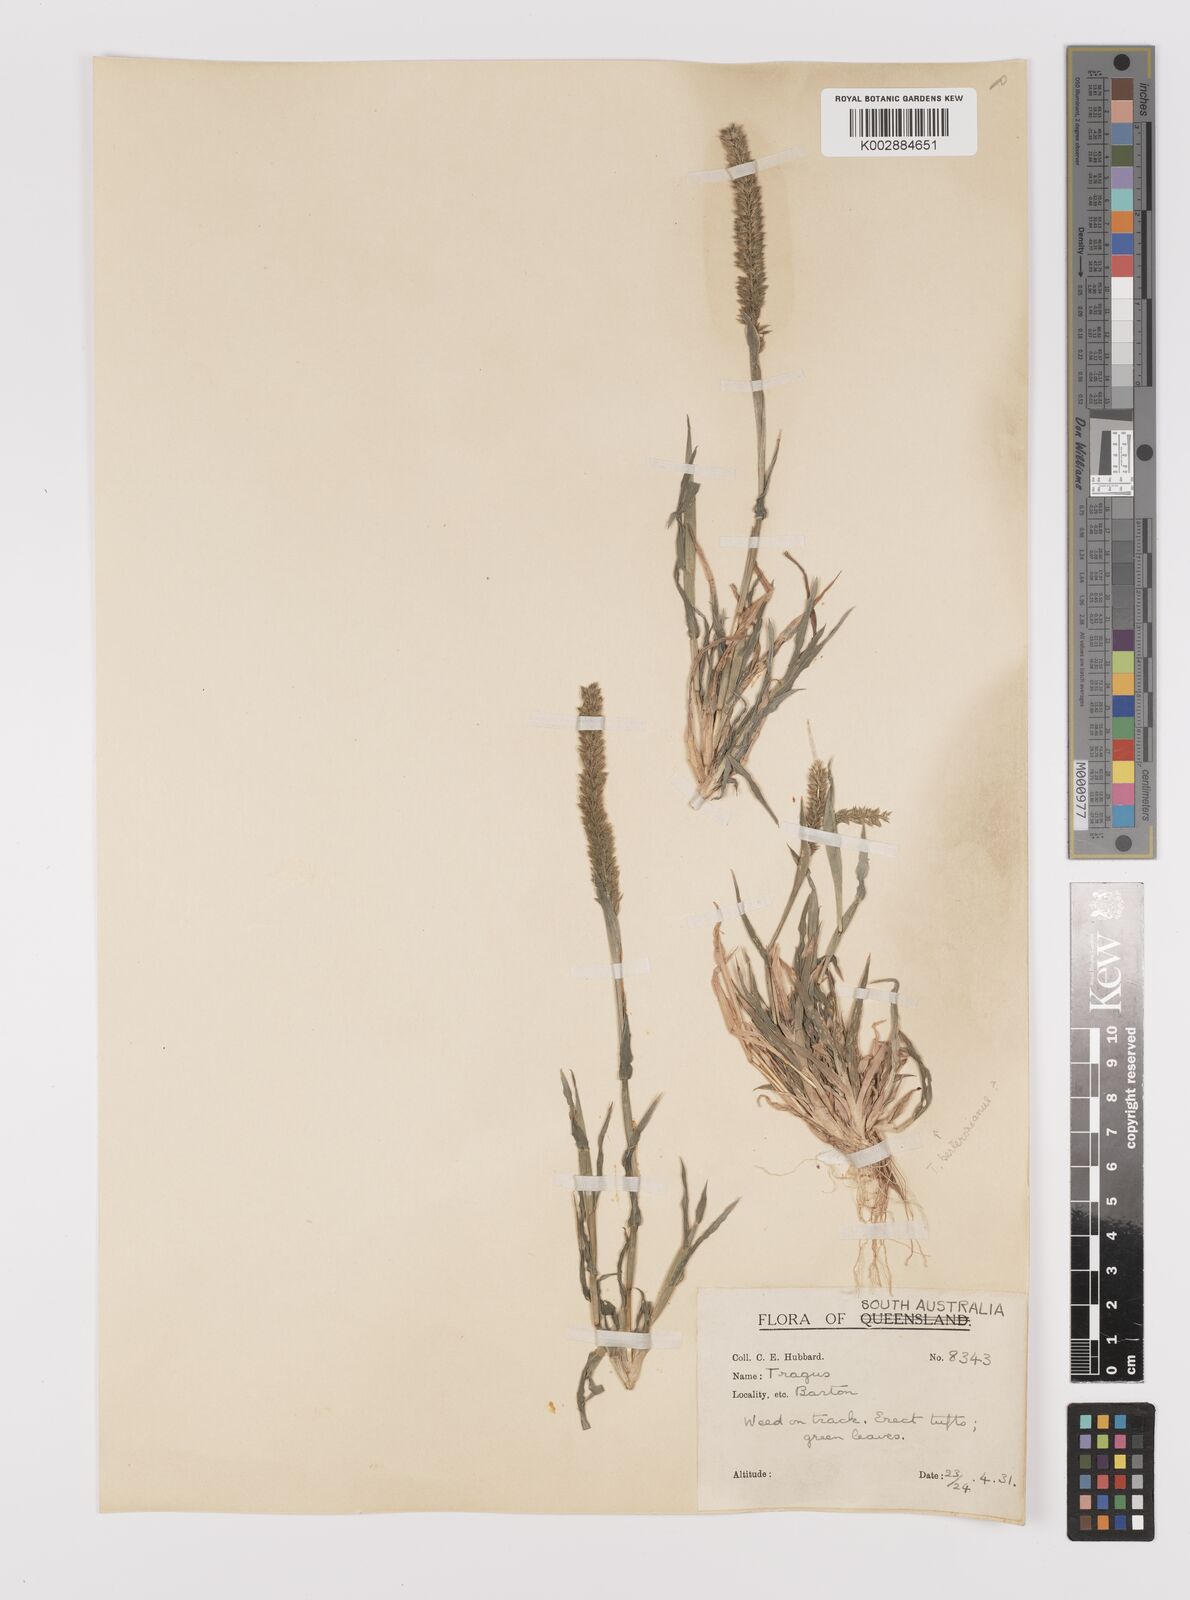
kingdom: Plantae
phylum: Tracheophyta
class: Liliopsida
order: Poales
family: Poaceae
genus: Tragus
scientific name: Tragus australianus
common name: Australian bur-grass
